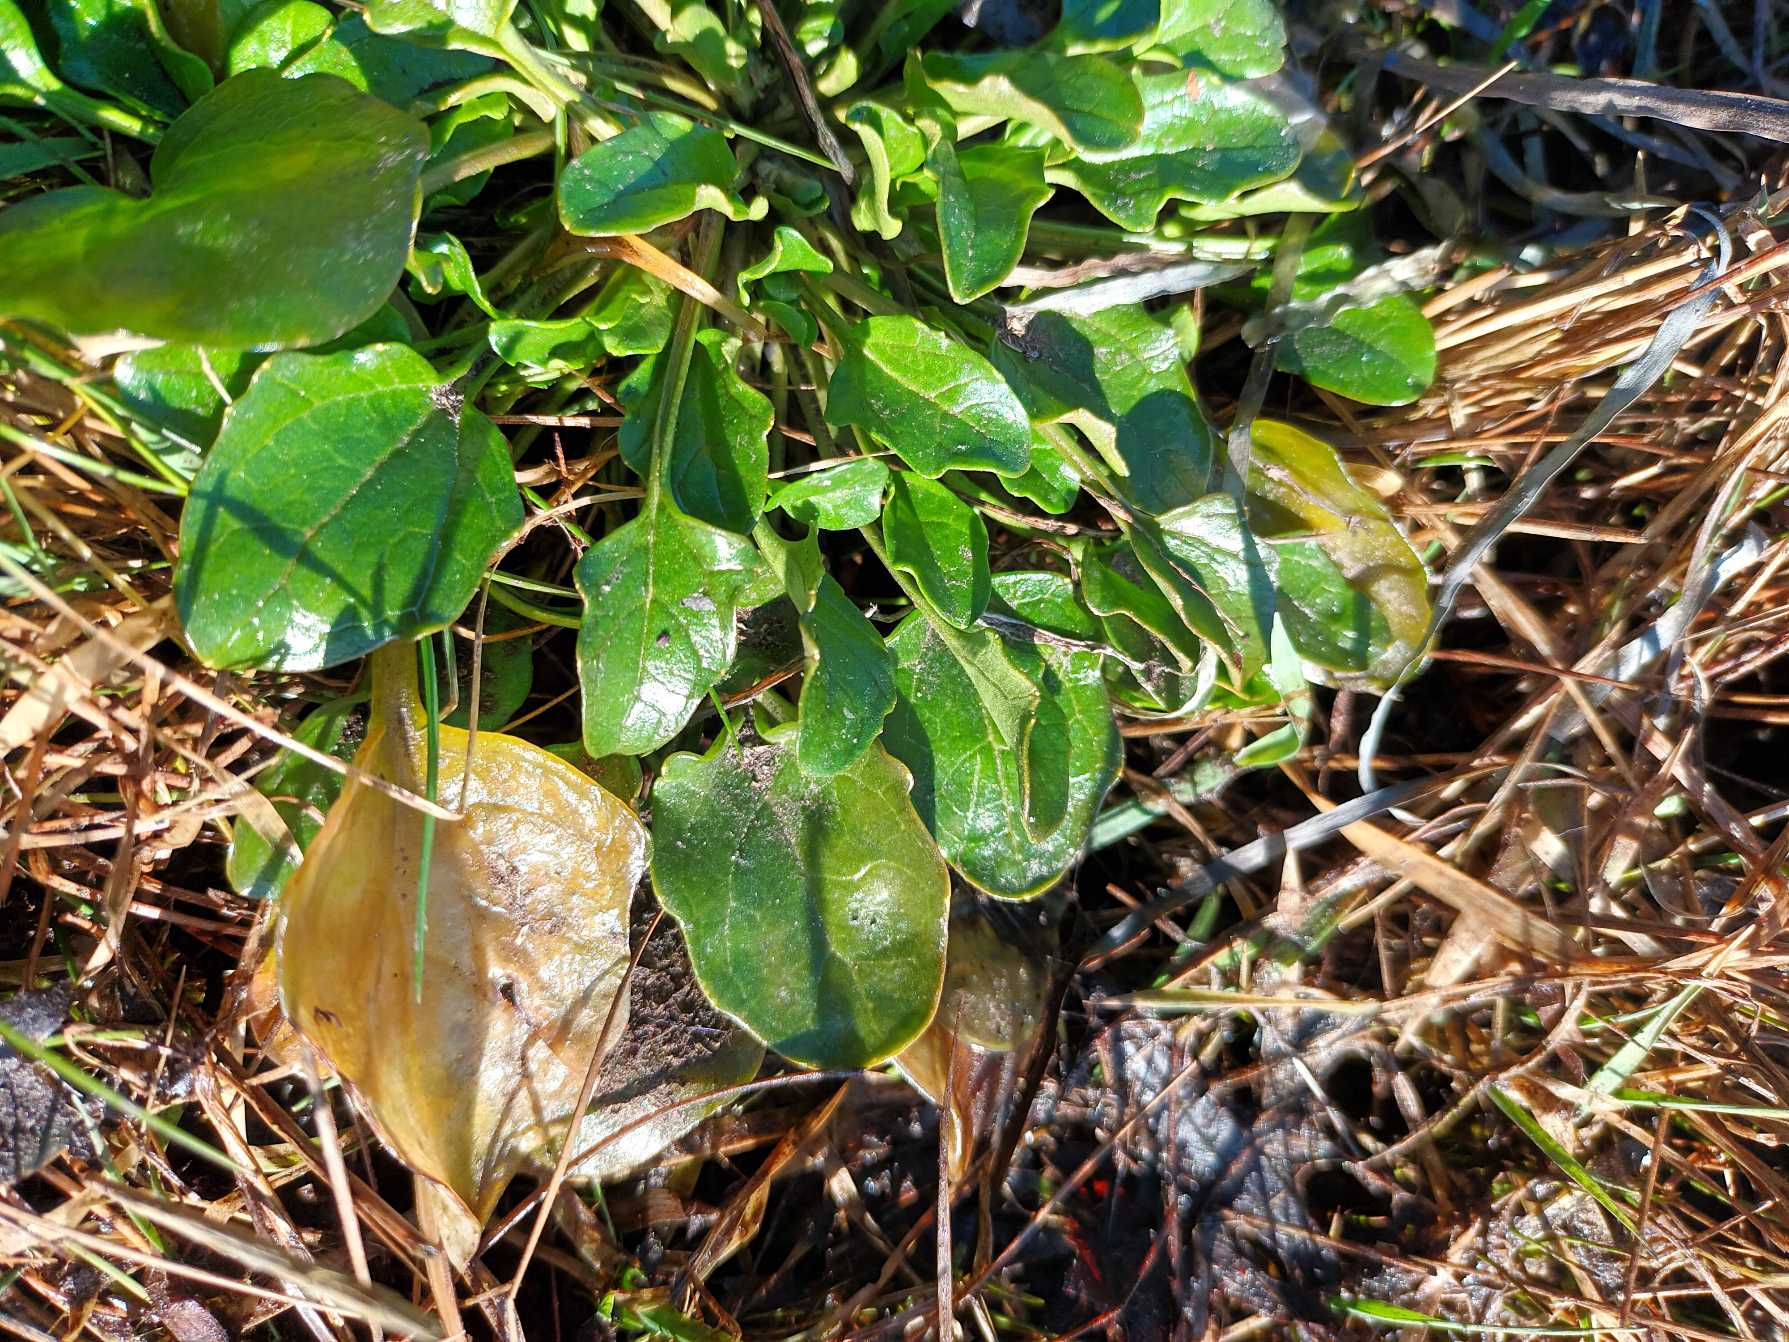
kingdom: Plantae
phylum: Tracheophyta
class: Magnoliopsida
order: Brassicales
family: Brassicaceae
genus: Cochlearia
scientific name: Cochlearia anglica
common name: Engelsk kokleare
